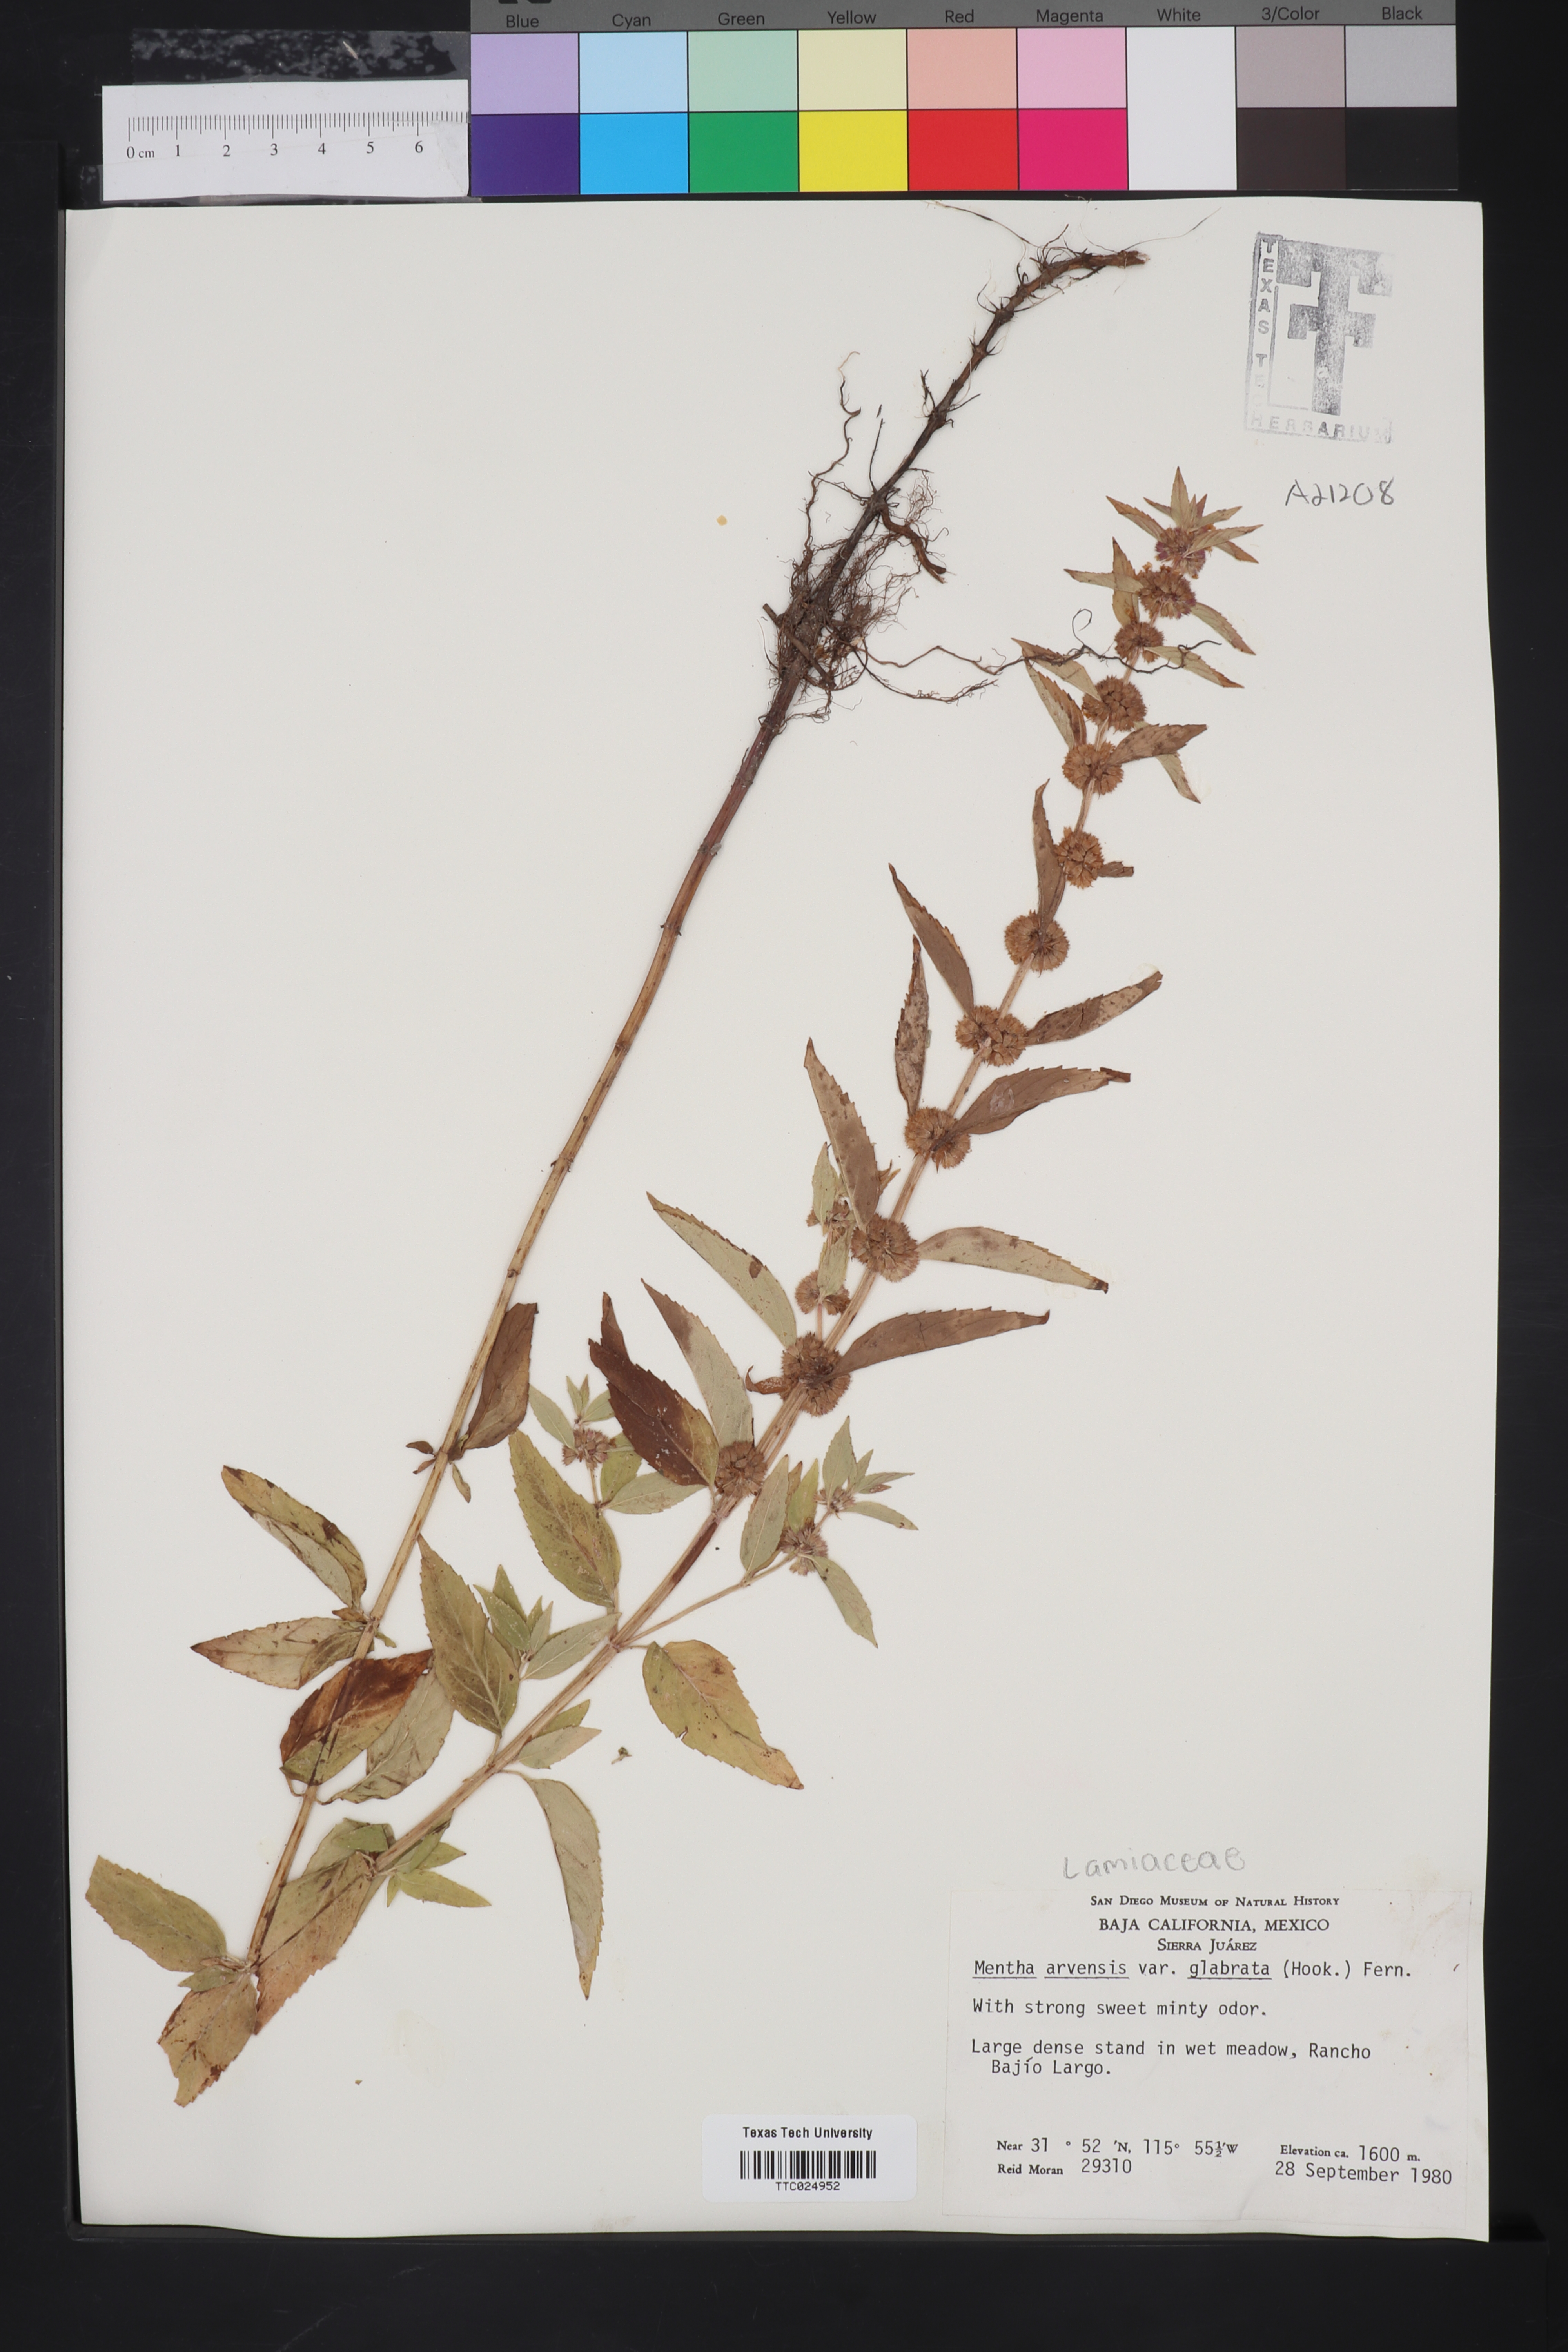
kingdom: Plantae
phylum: Tracheophyta
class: Magnoliopsida
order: Lamiales
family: Lamiaceae
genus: Mentha
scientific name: Mentha canadensis
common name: American corn mint
